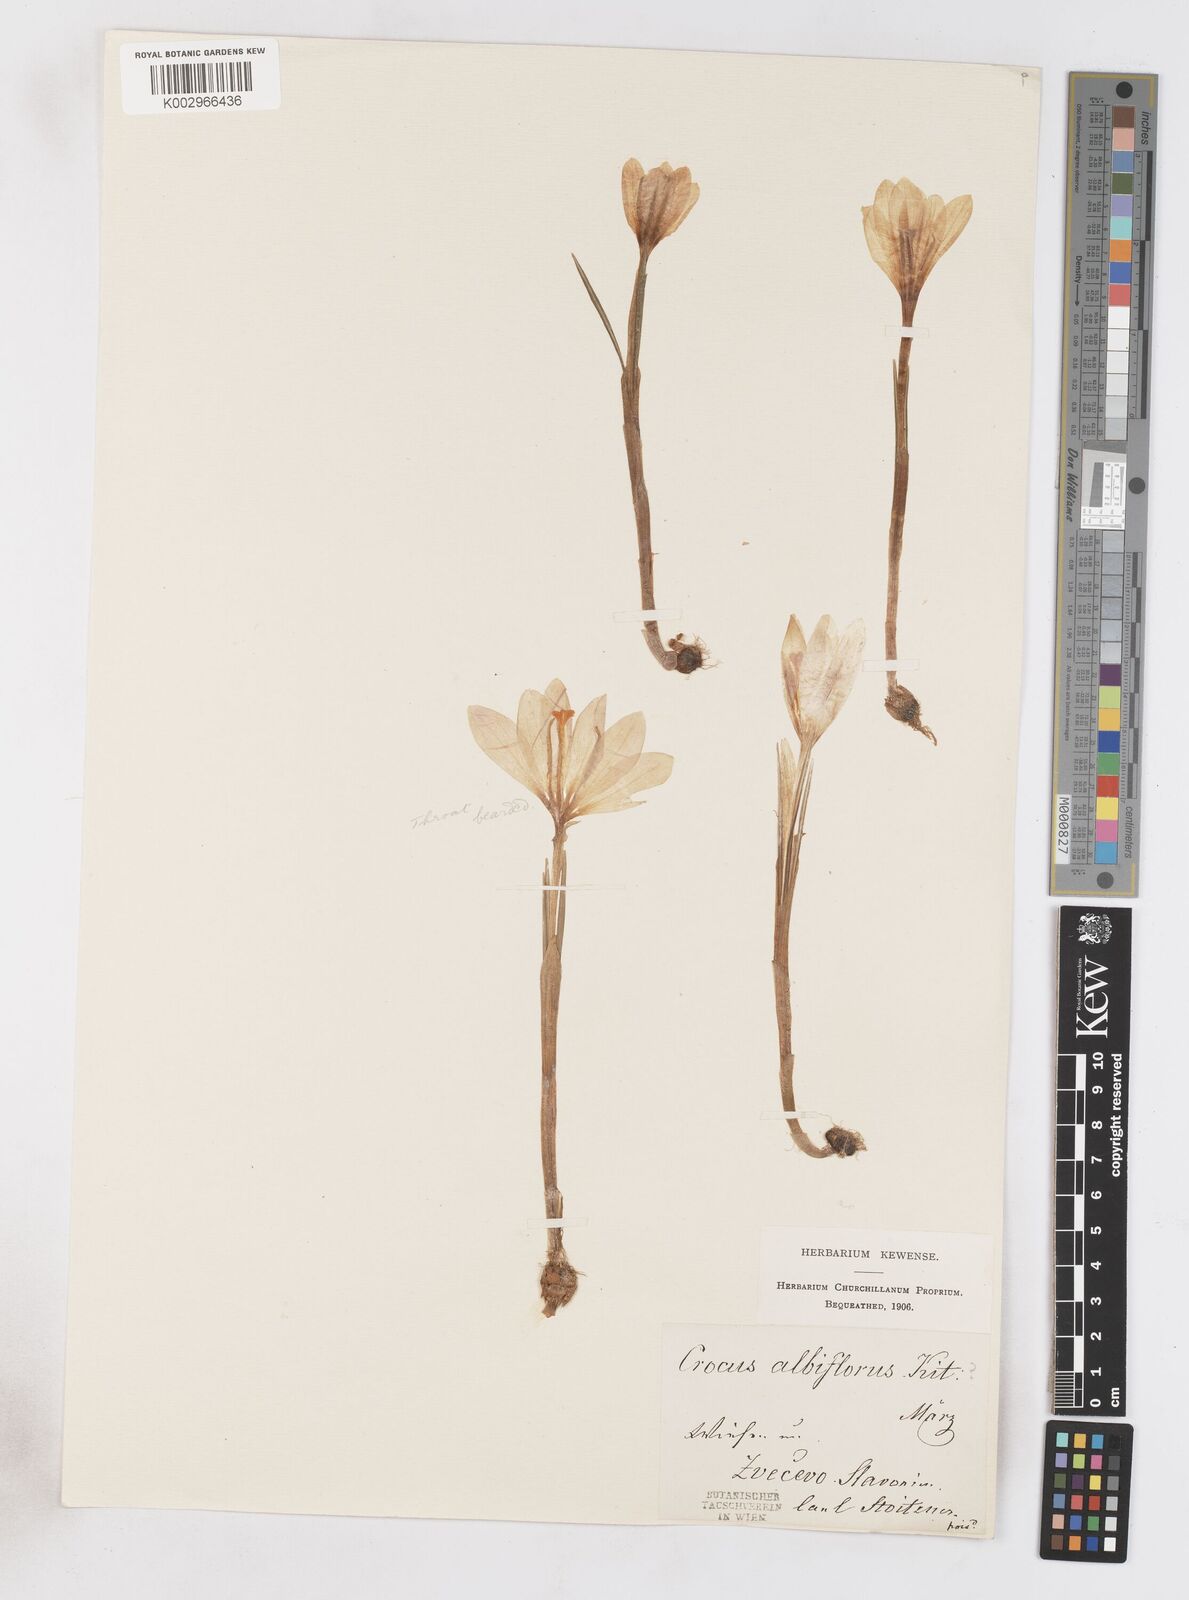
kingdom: Plantae
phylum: Tracheophyta
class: Liliopsida
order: Asparagales
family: Iridaceae
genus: Crocus
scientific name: Crocus vernus
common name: Spring crocus
